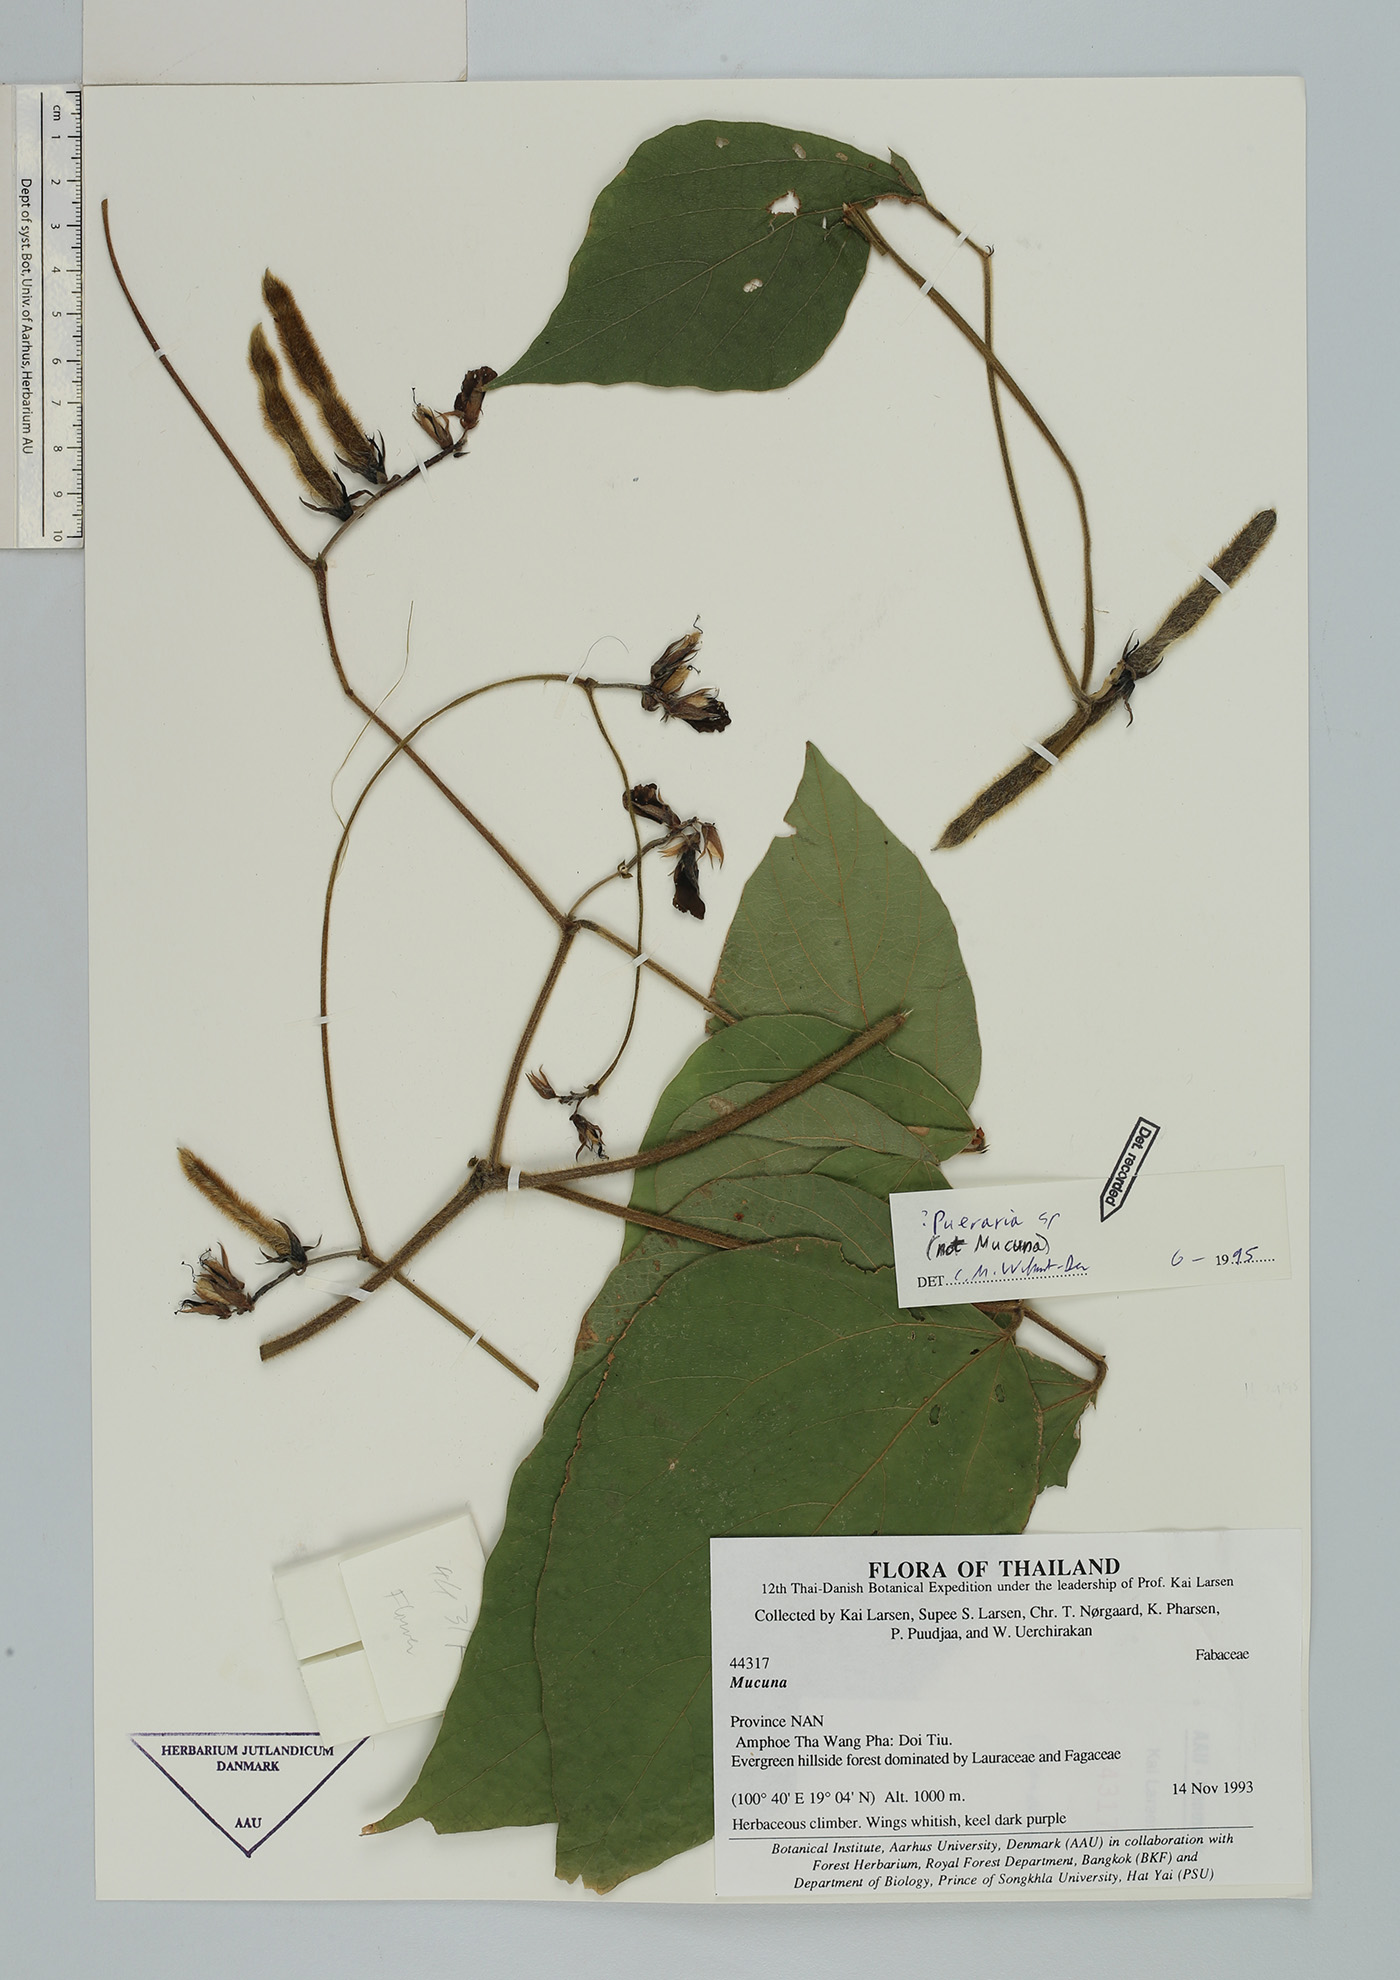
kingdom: Plantae
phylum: Tracheophyta
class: Magnoliopsida
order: Fabales
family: Fabaceae
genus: Sinodolichos
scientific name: Sinodolichos lagopus
